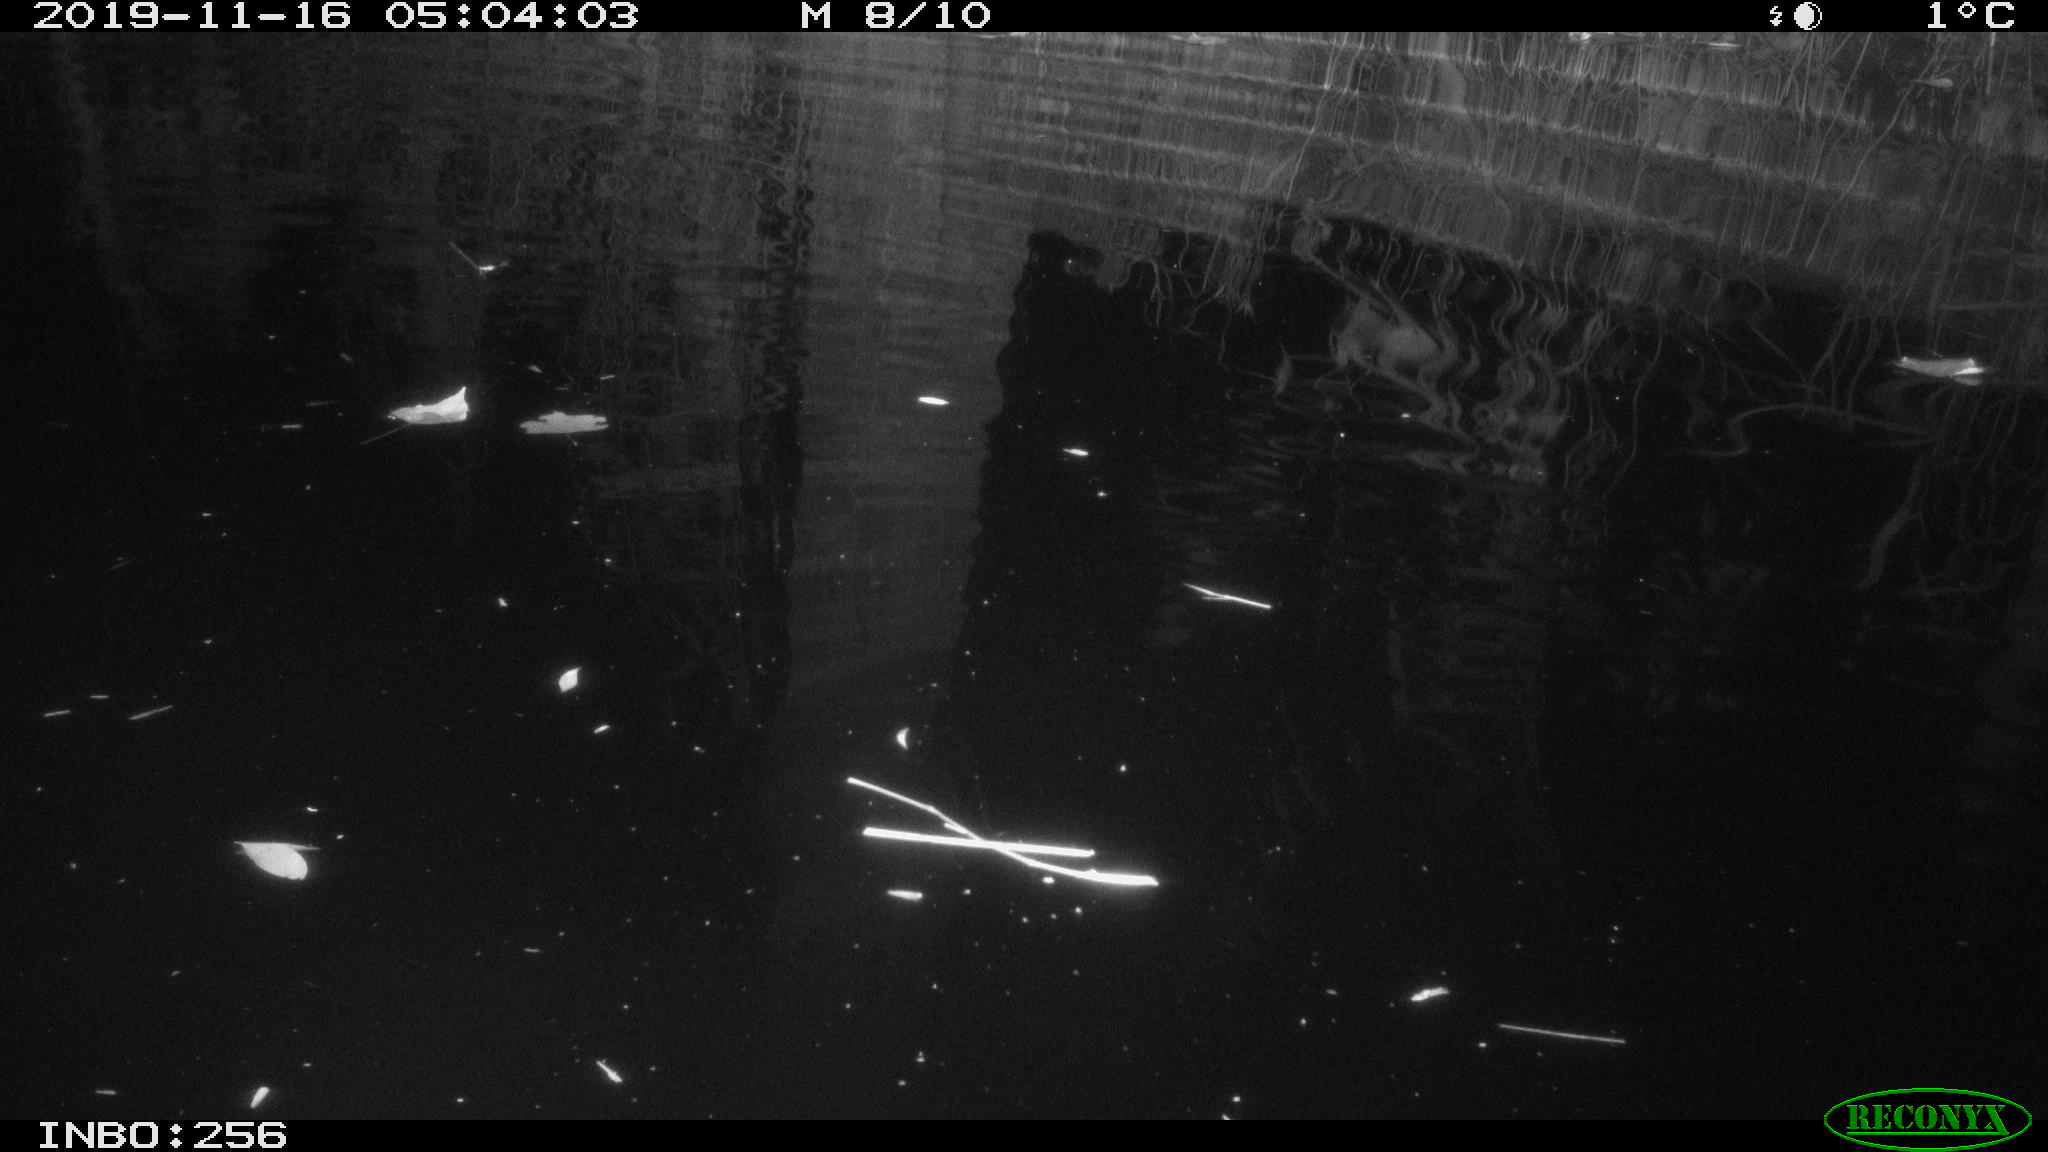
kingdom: Animalia
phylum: Chordata
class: Mammalia
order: Rodentia
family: Muridae
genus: Rattus
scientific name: Rattus norvegicus
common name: Brown rat
